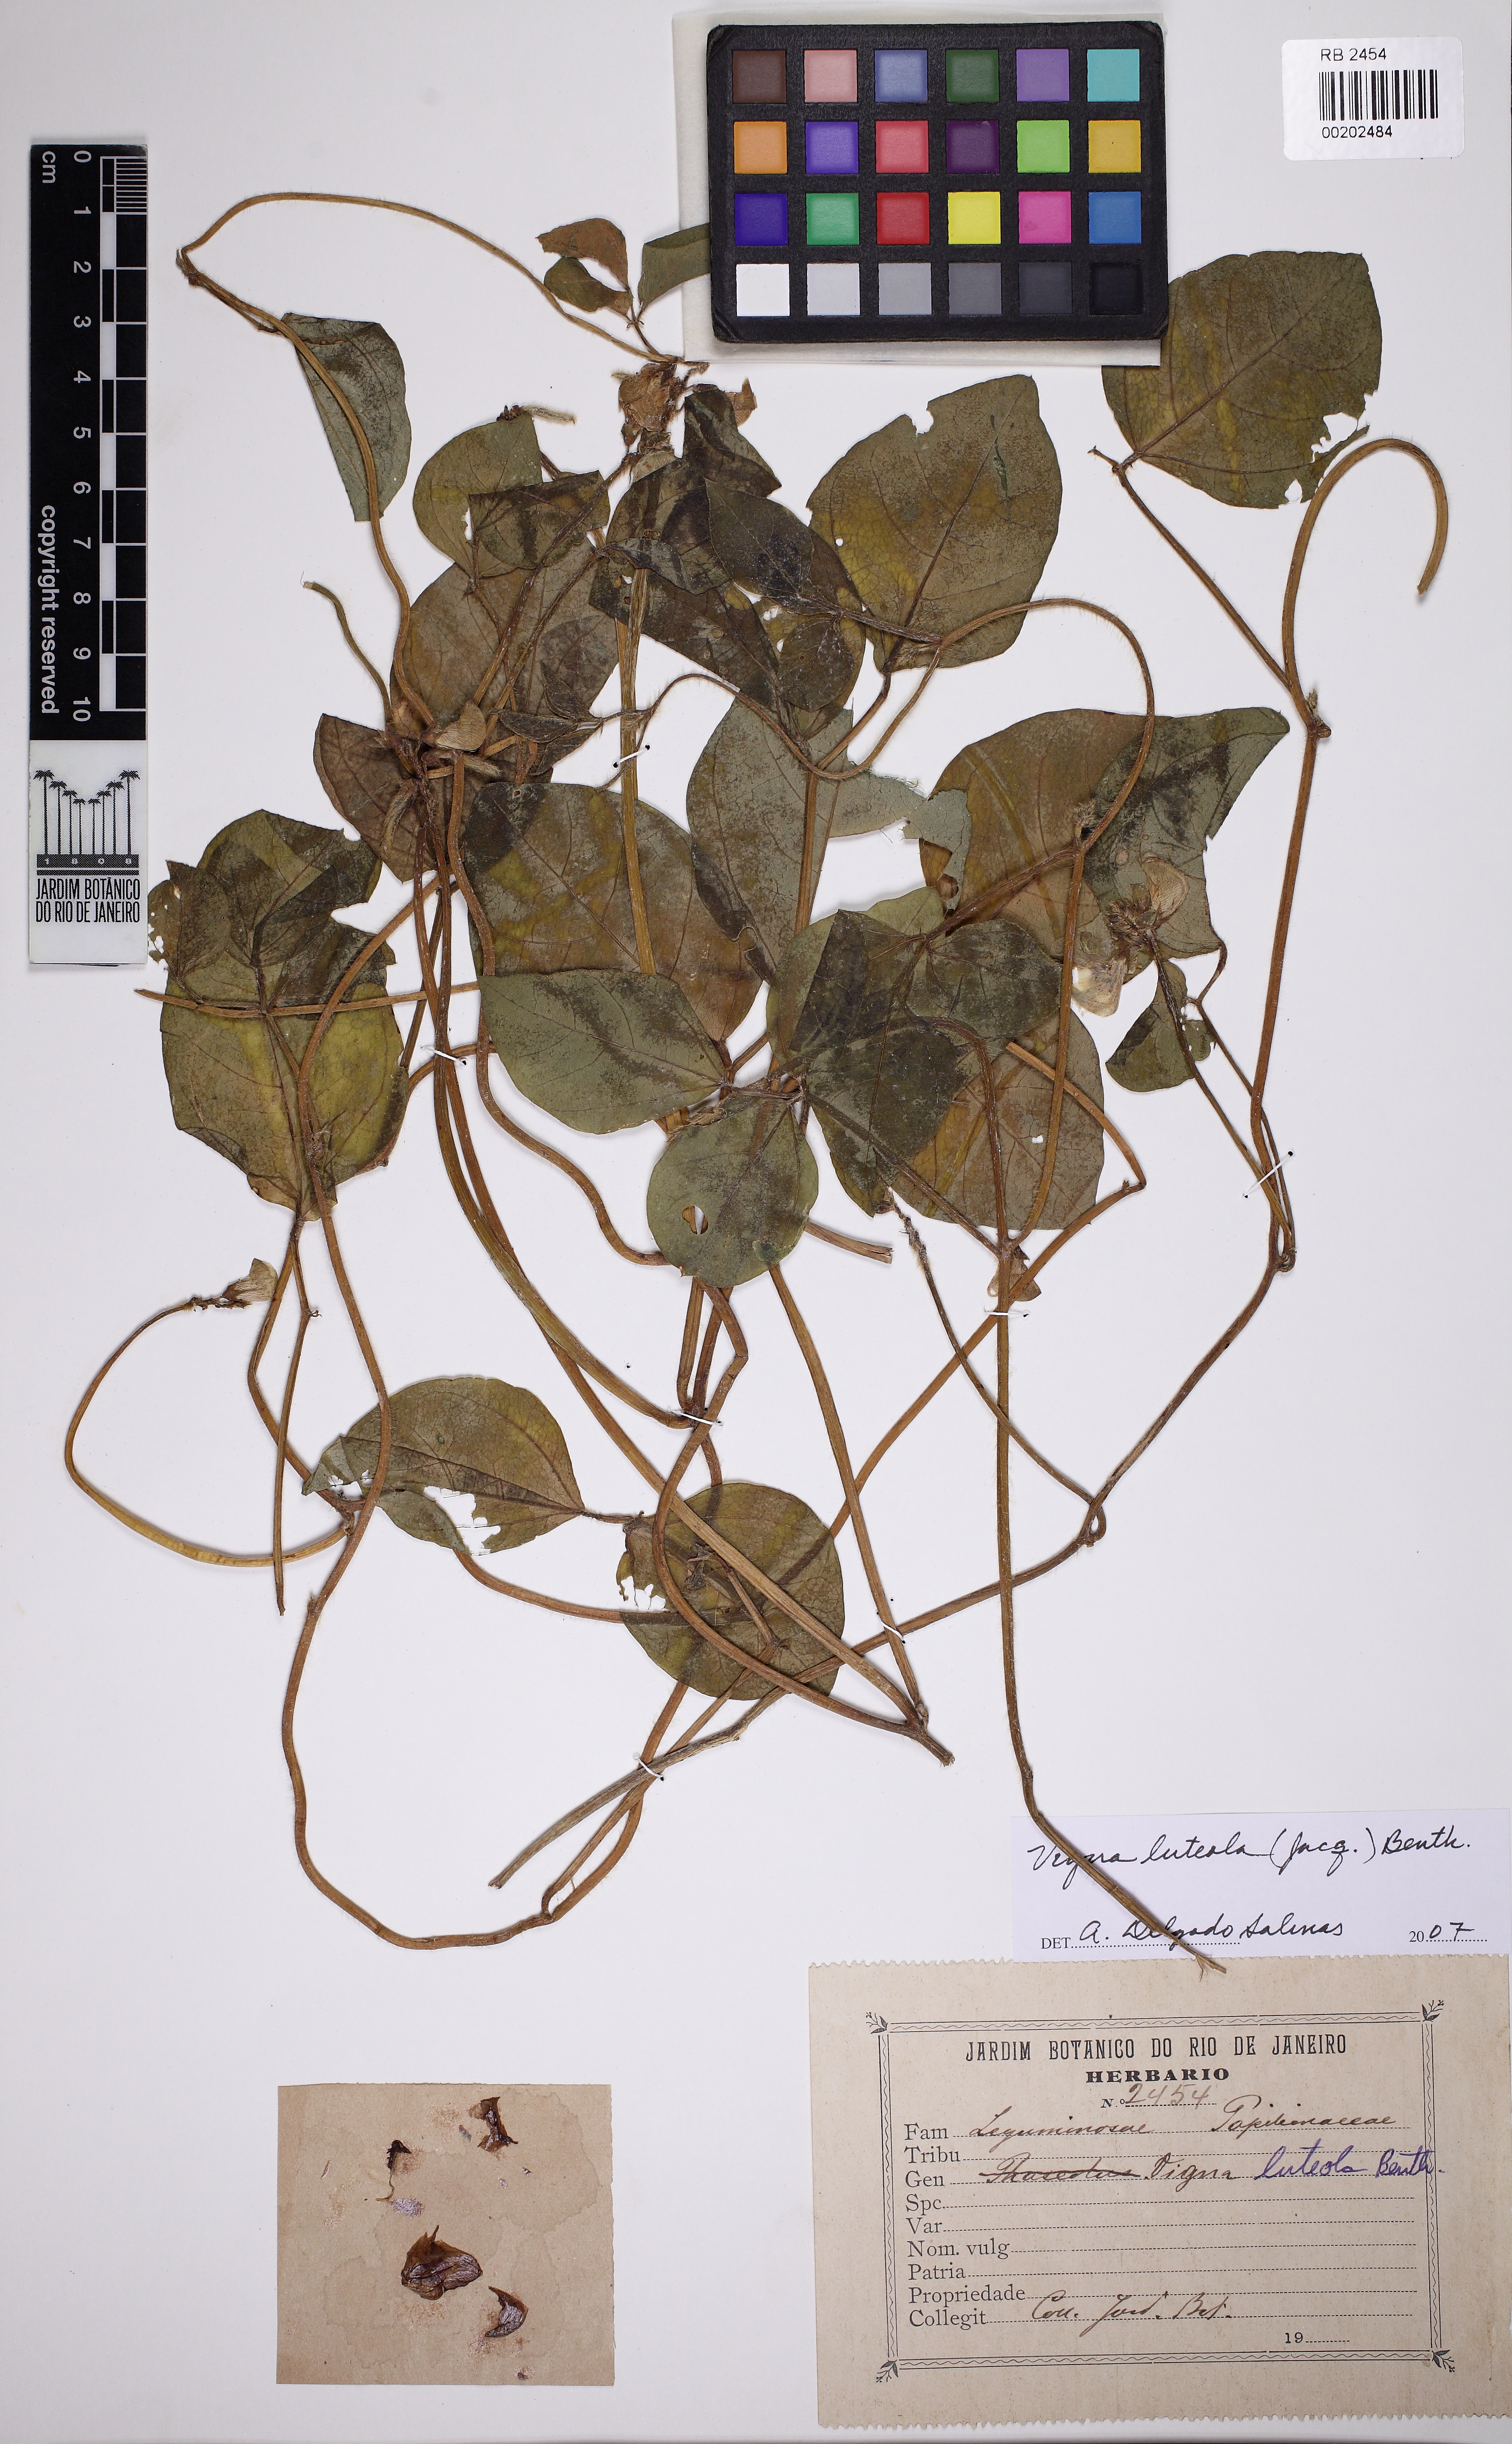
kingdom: Plantae
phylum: Tracheophyta
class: Magnoliopsida
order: Fabales
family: Fabaceae
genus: Vigna
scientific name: Vigna luteola
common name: Hairypod cowpea
